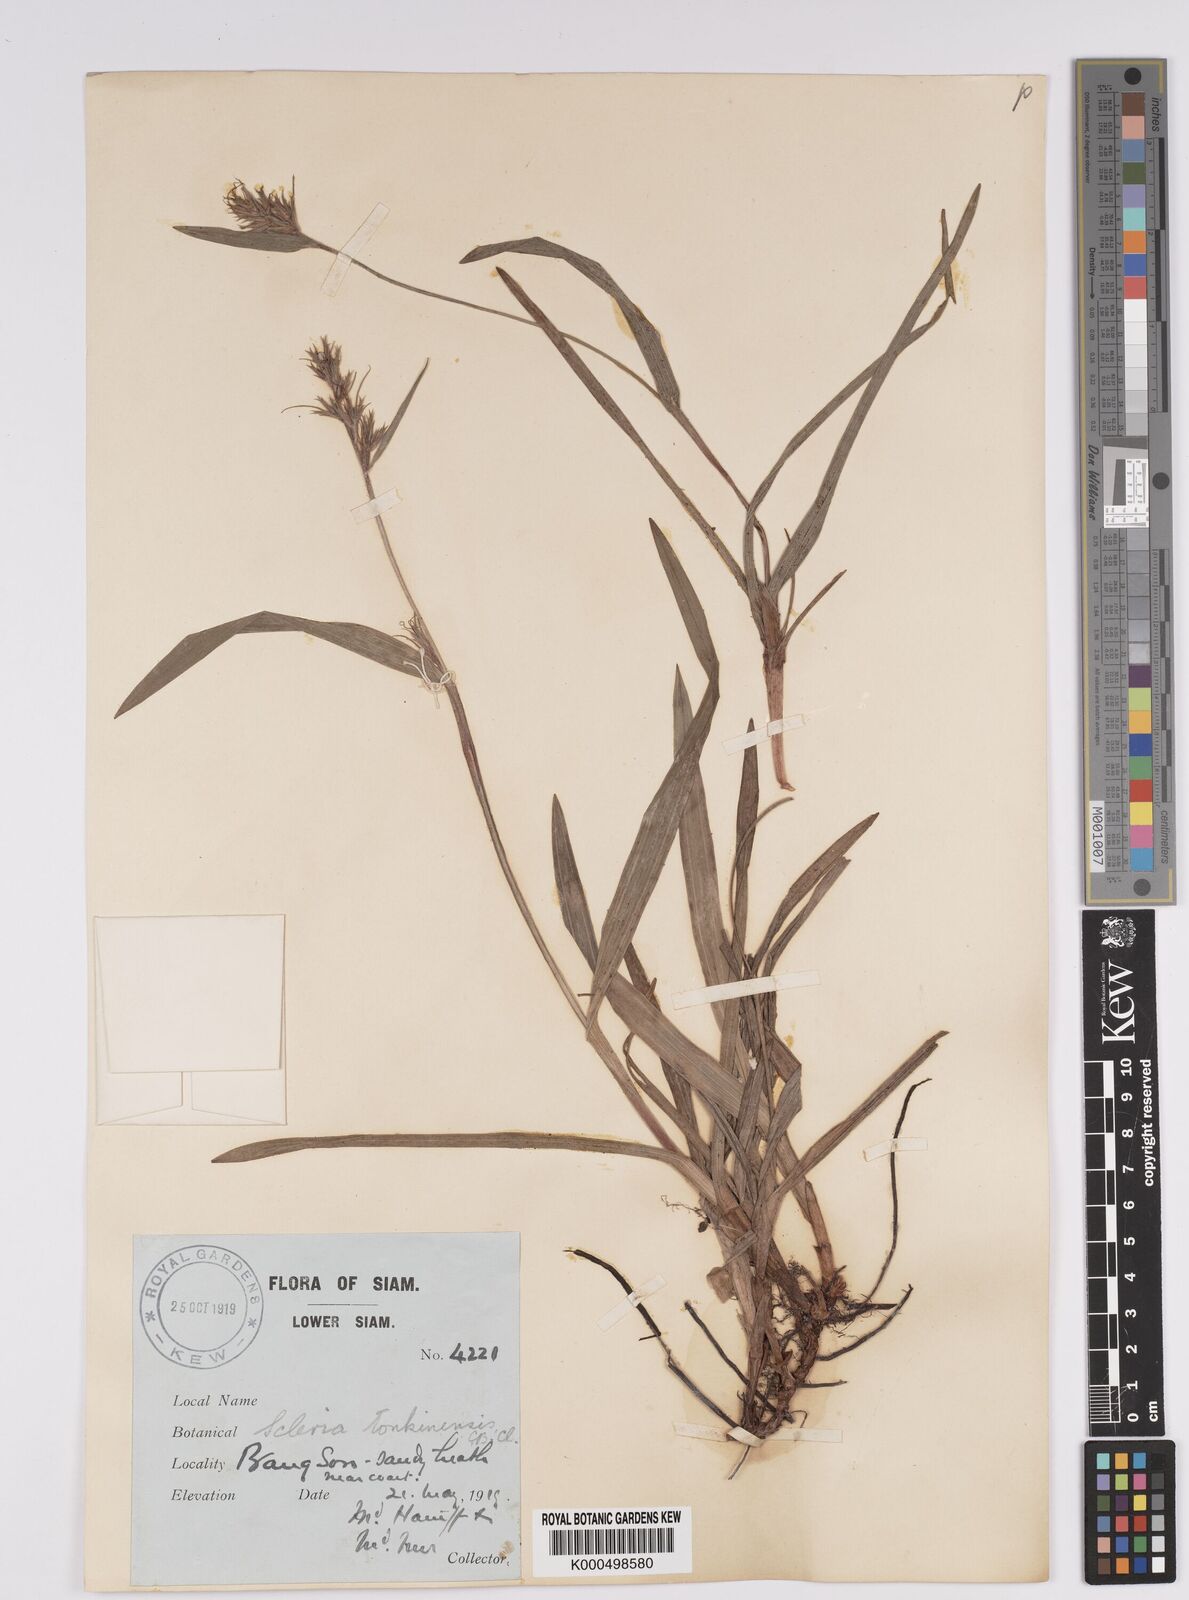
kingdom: Plantae
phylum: Tracheophyta
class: Liliopsida
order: Poales
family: Cyperaceae
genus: Scleria
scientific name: Scleria tonkinensis
